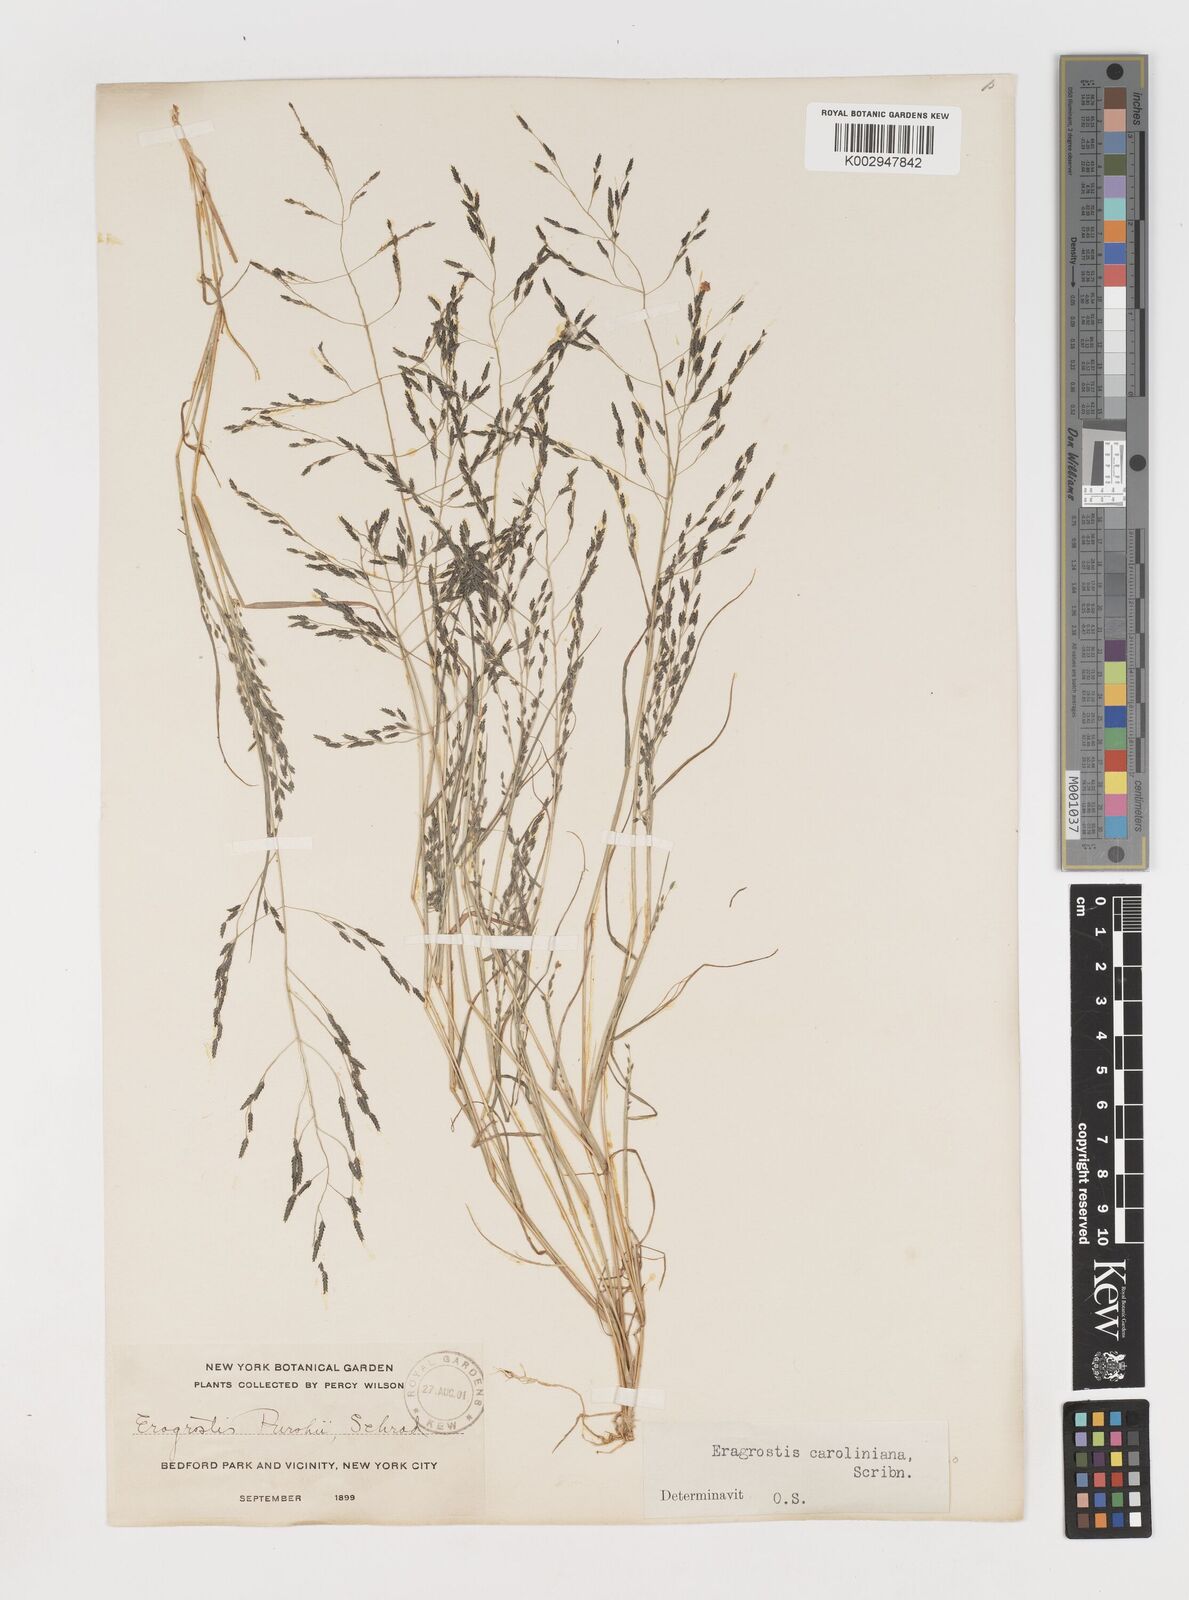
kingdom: Plantae
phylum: Tracheophyta
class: Liliopsida
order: Poales
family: Poaceae
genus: Eragrostis
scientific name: Eragrostis pectinacea
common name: Tufted lovegrass
